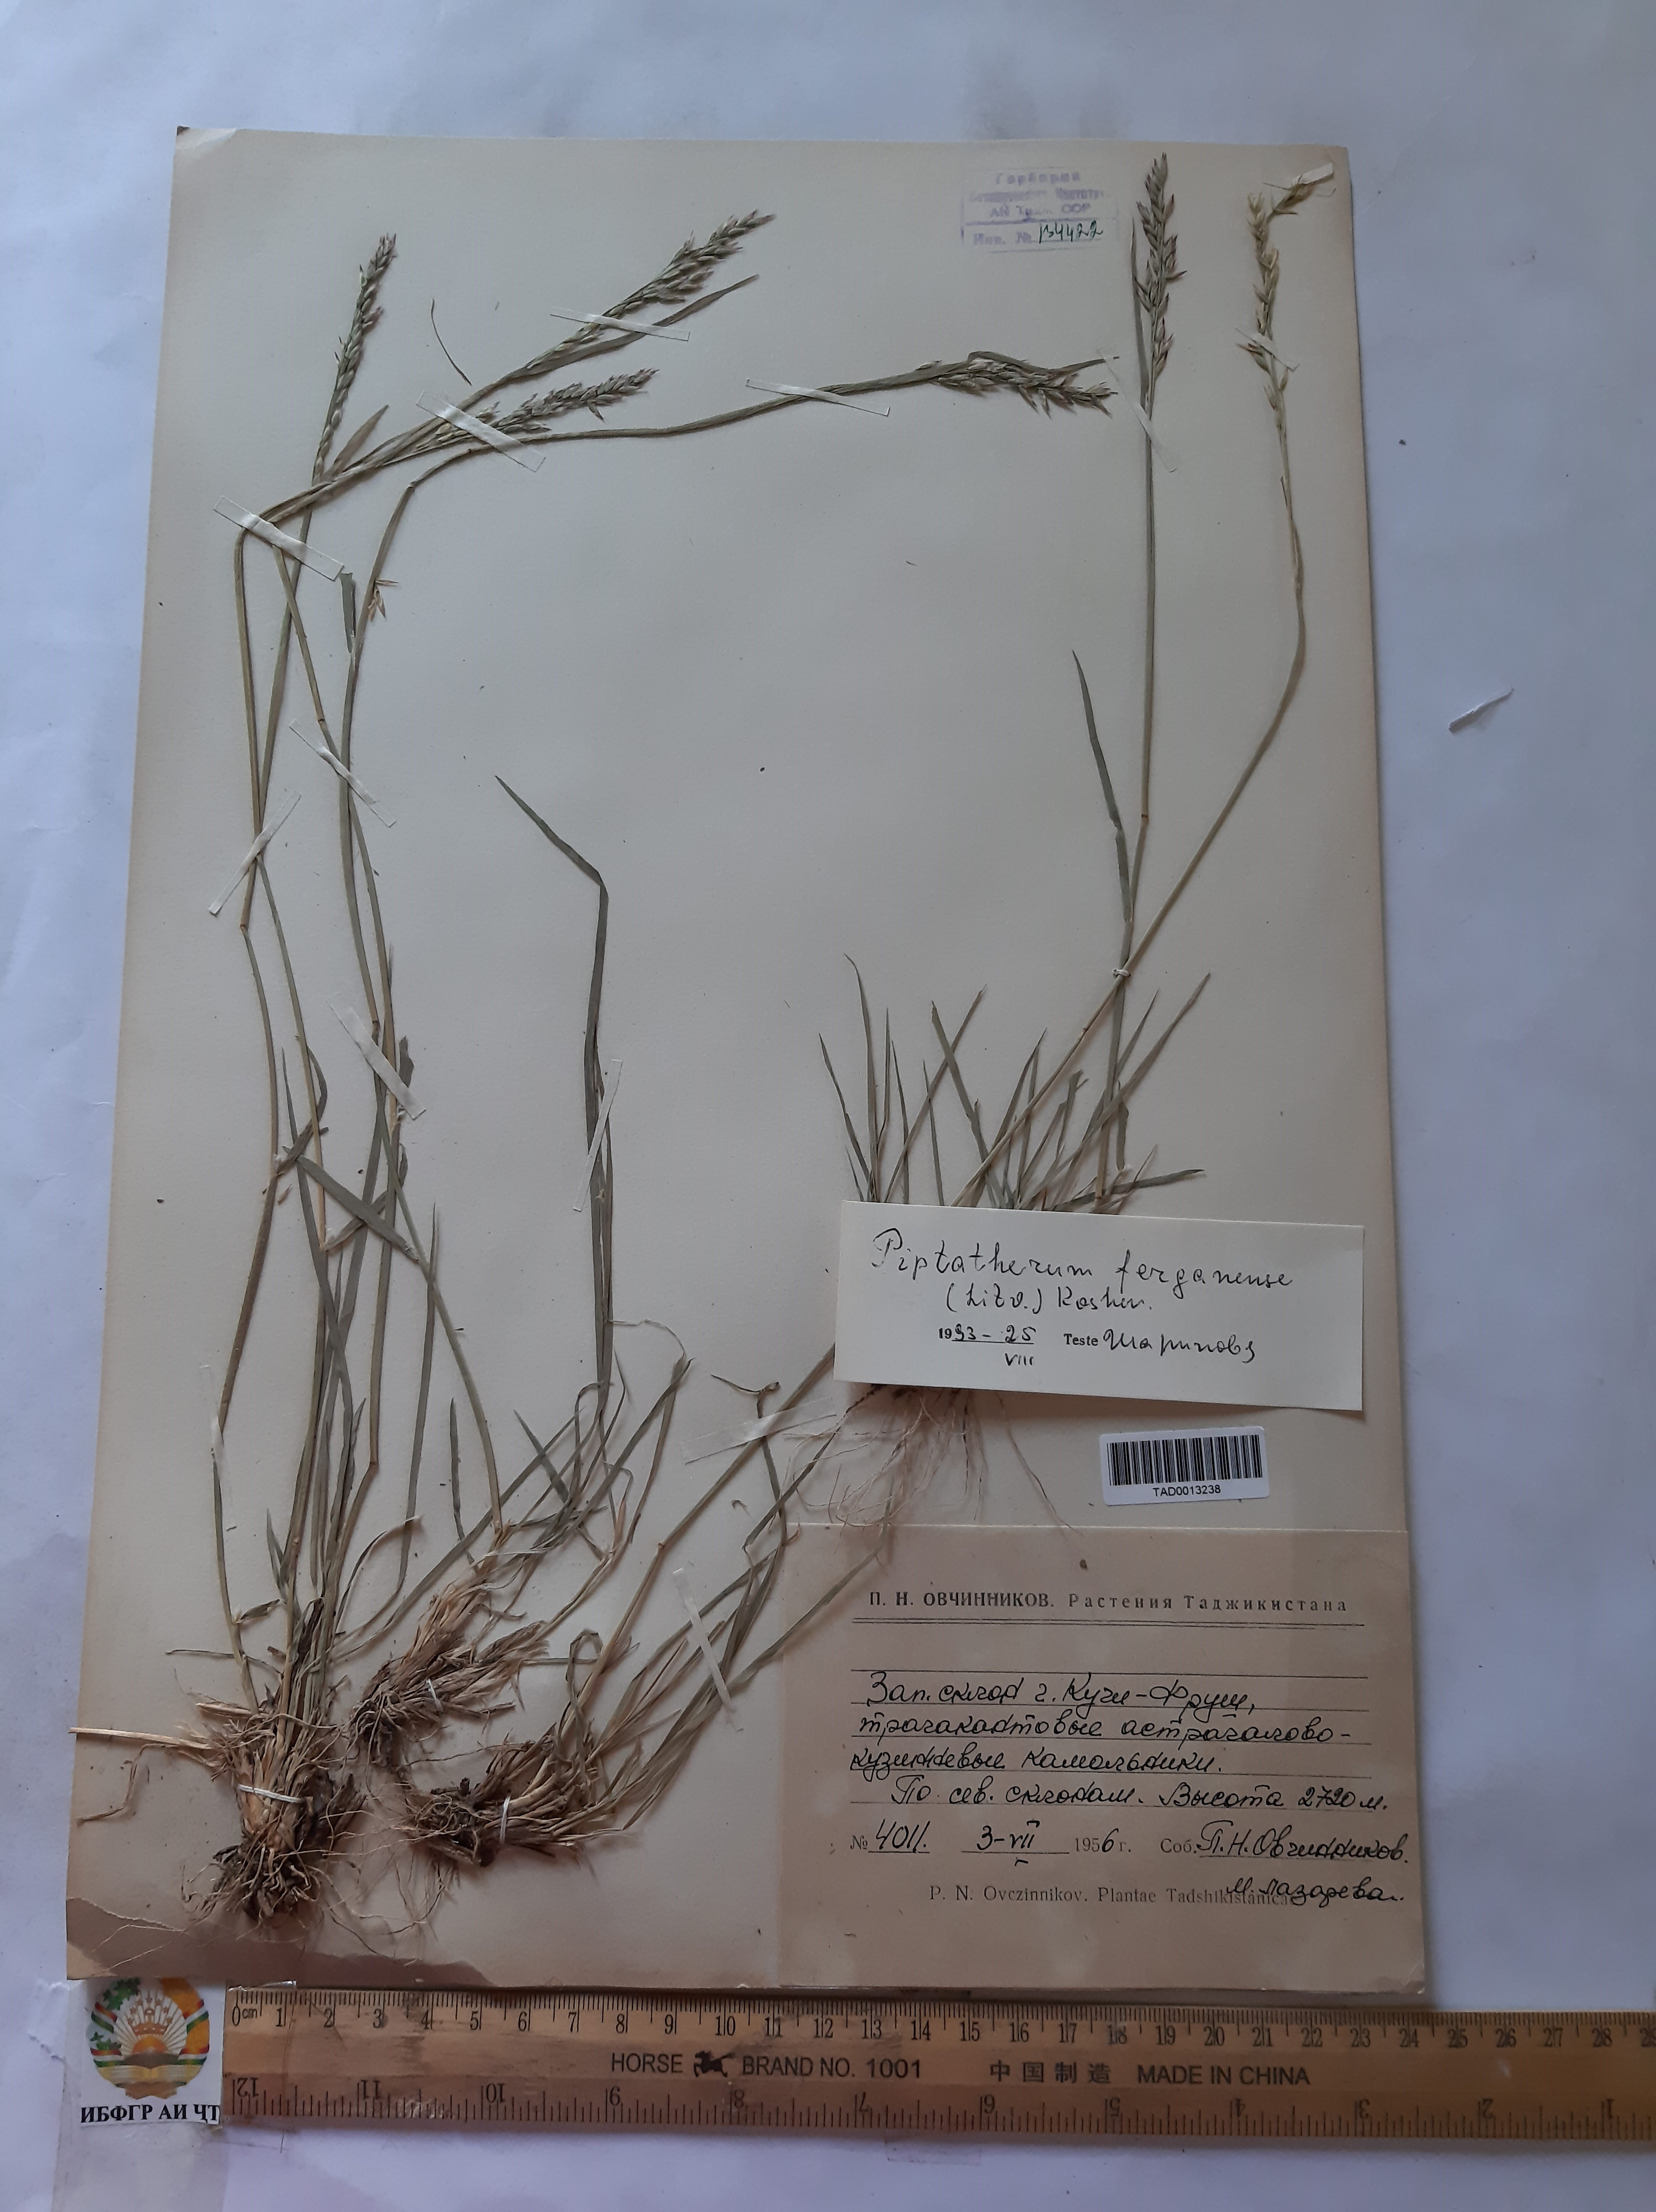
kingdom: Plantae
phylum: Tracheophyta
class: Liliopsida
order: Poales
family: Poaceae
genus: Piptatherum
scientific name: Piptatherum ferganense
